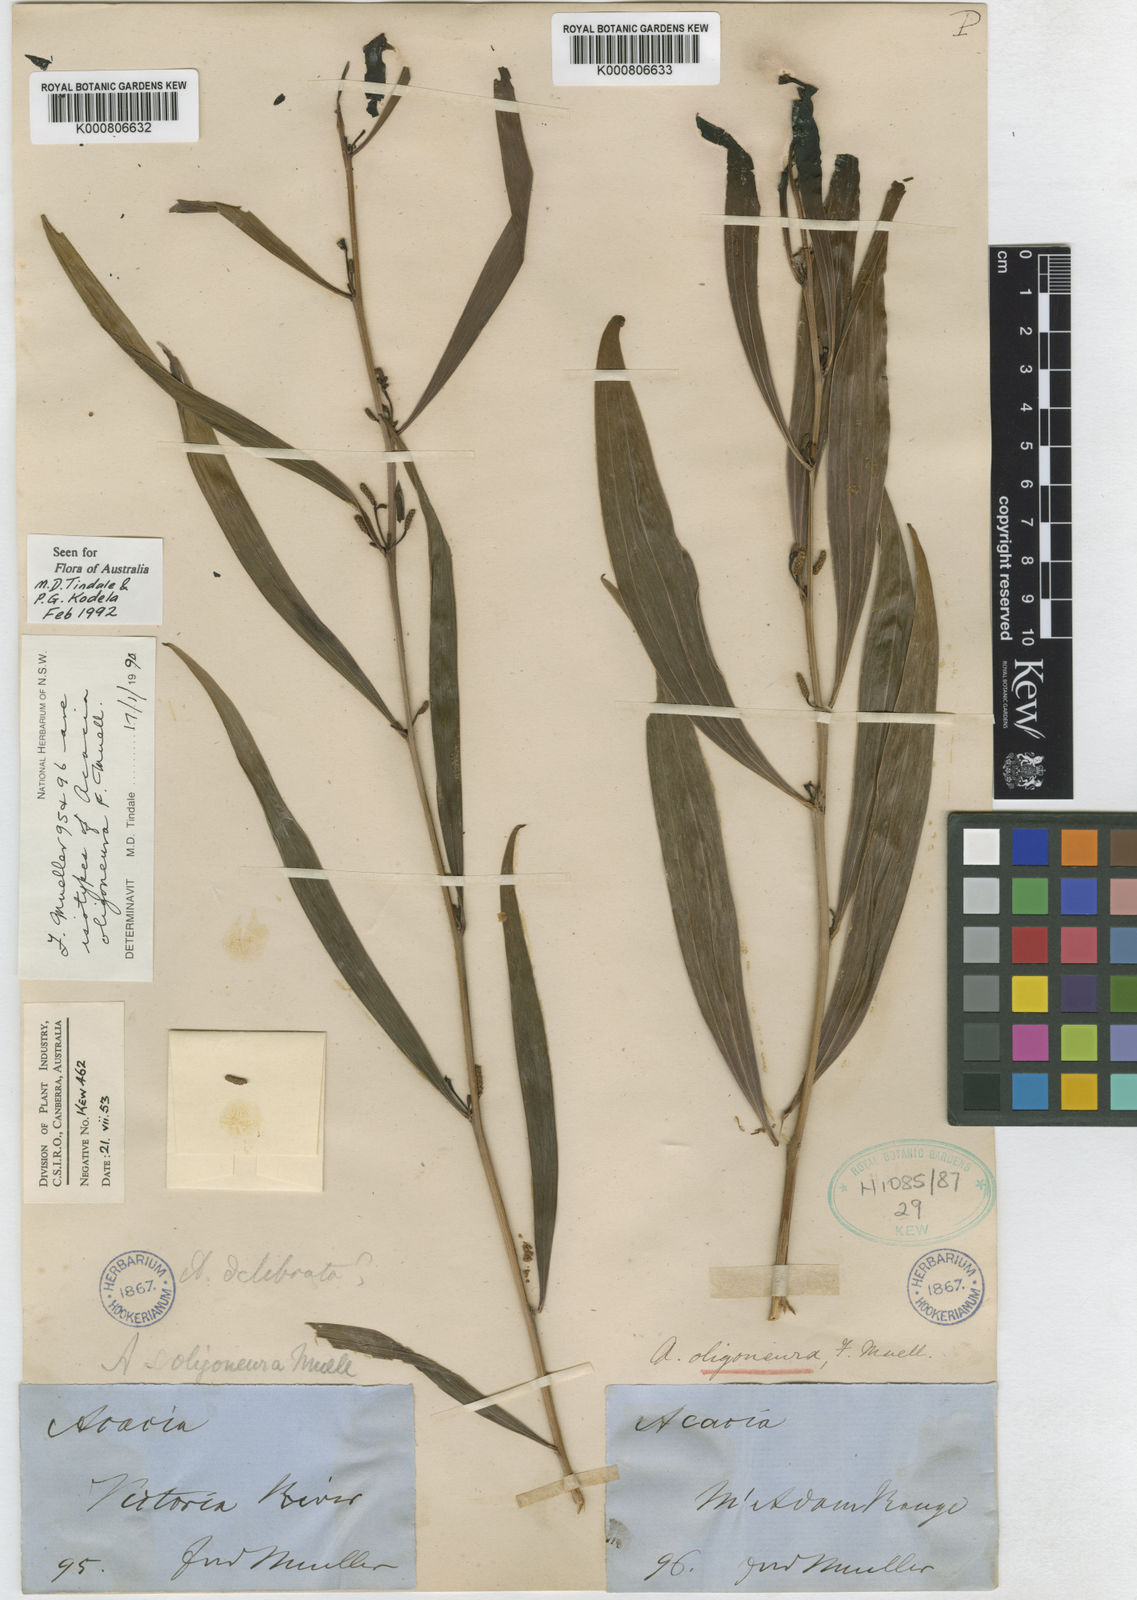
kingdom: Plantae
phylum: Tracheophyta
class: Magnoliopsida
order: Fabales
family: Fabaceae
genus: Acacia
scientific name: Acacia oligoneura
